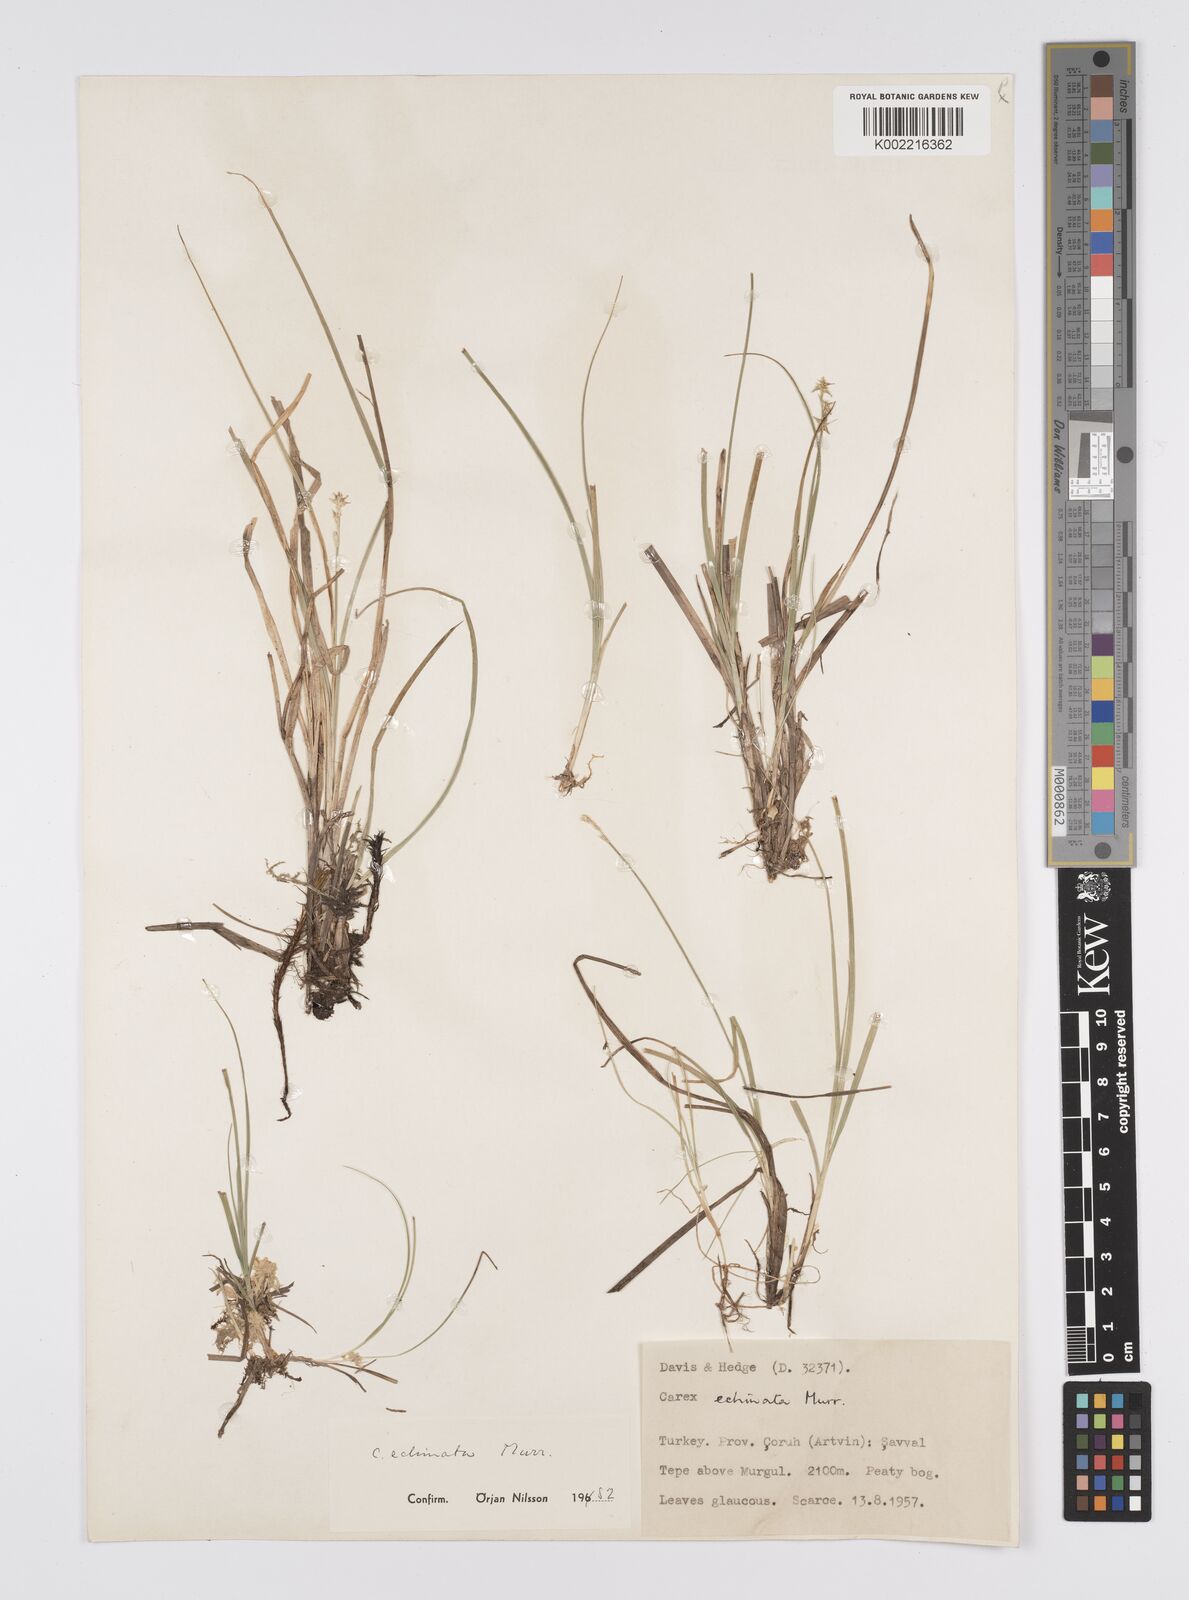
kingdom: Plantae
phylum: Tracheophyta
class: Liliopsida
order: Poales
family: Cyperaceae
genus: Carex
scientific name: Carex echinata
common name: Star sedge
